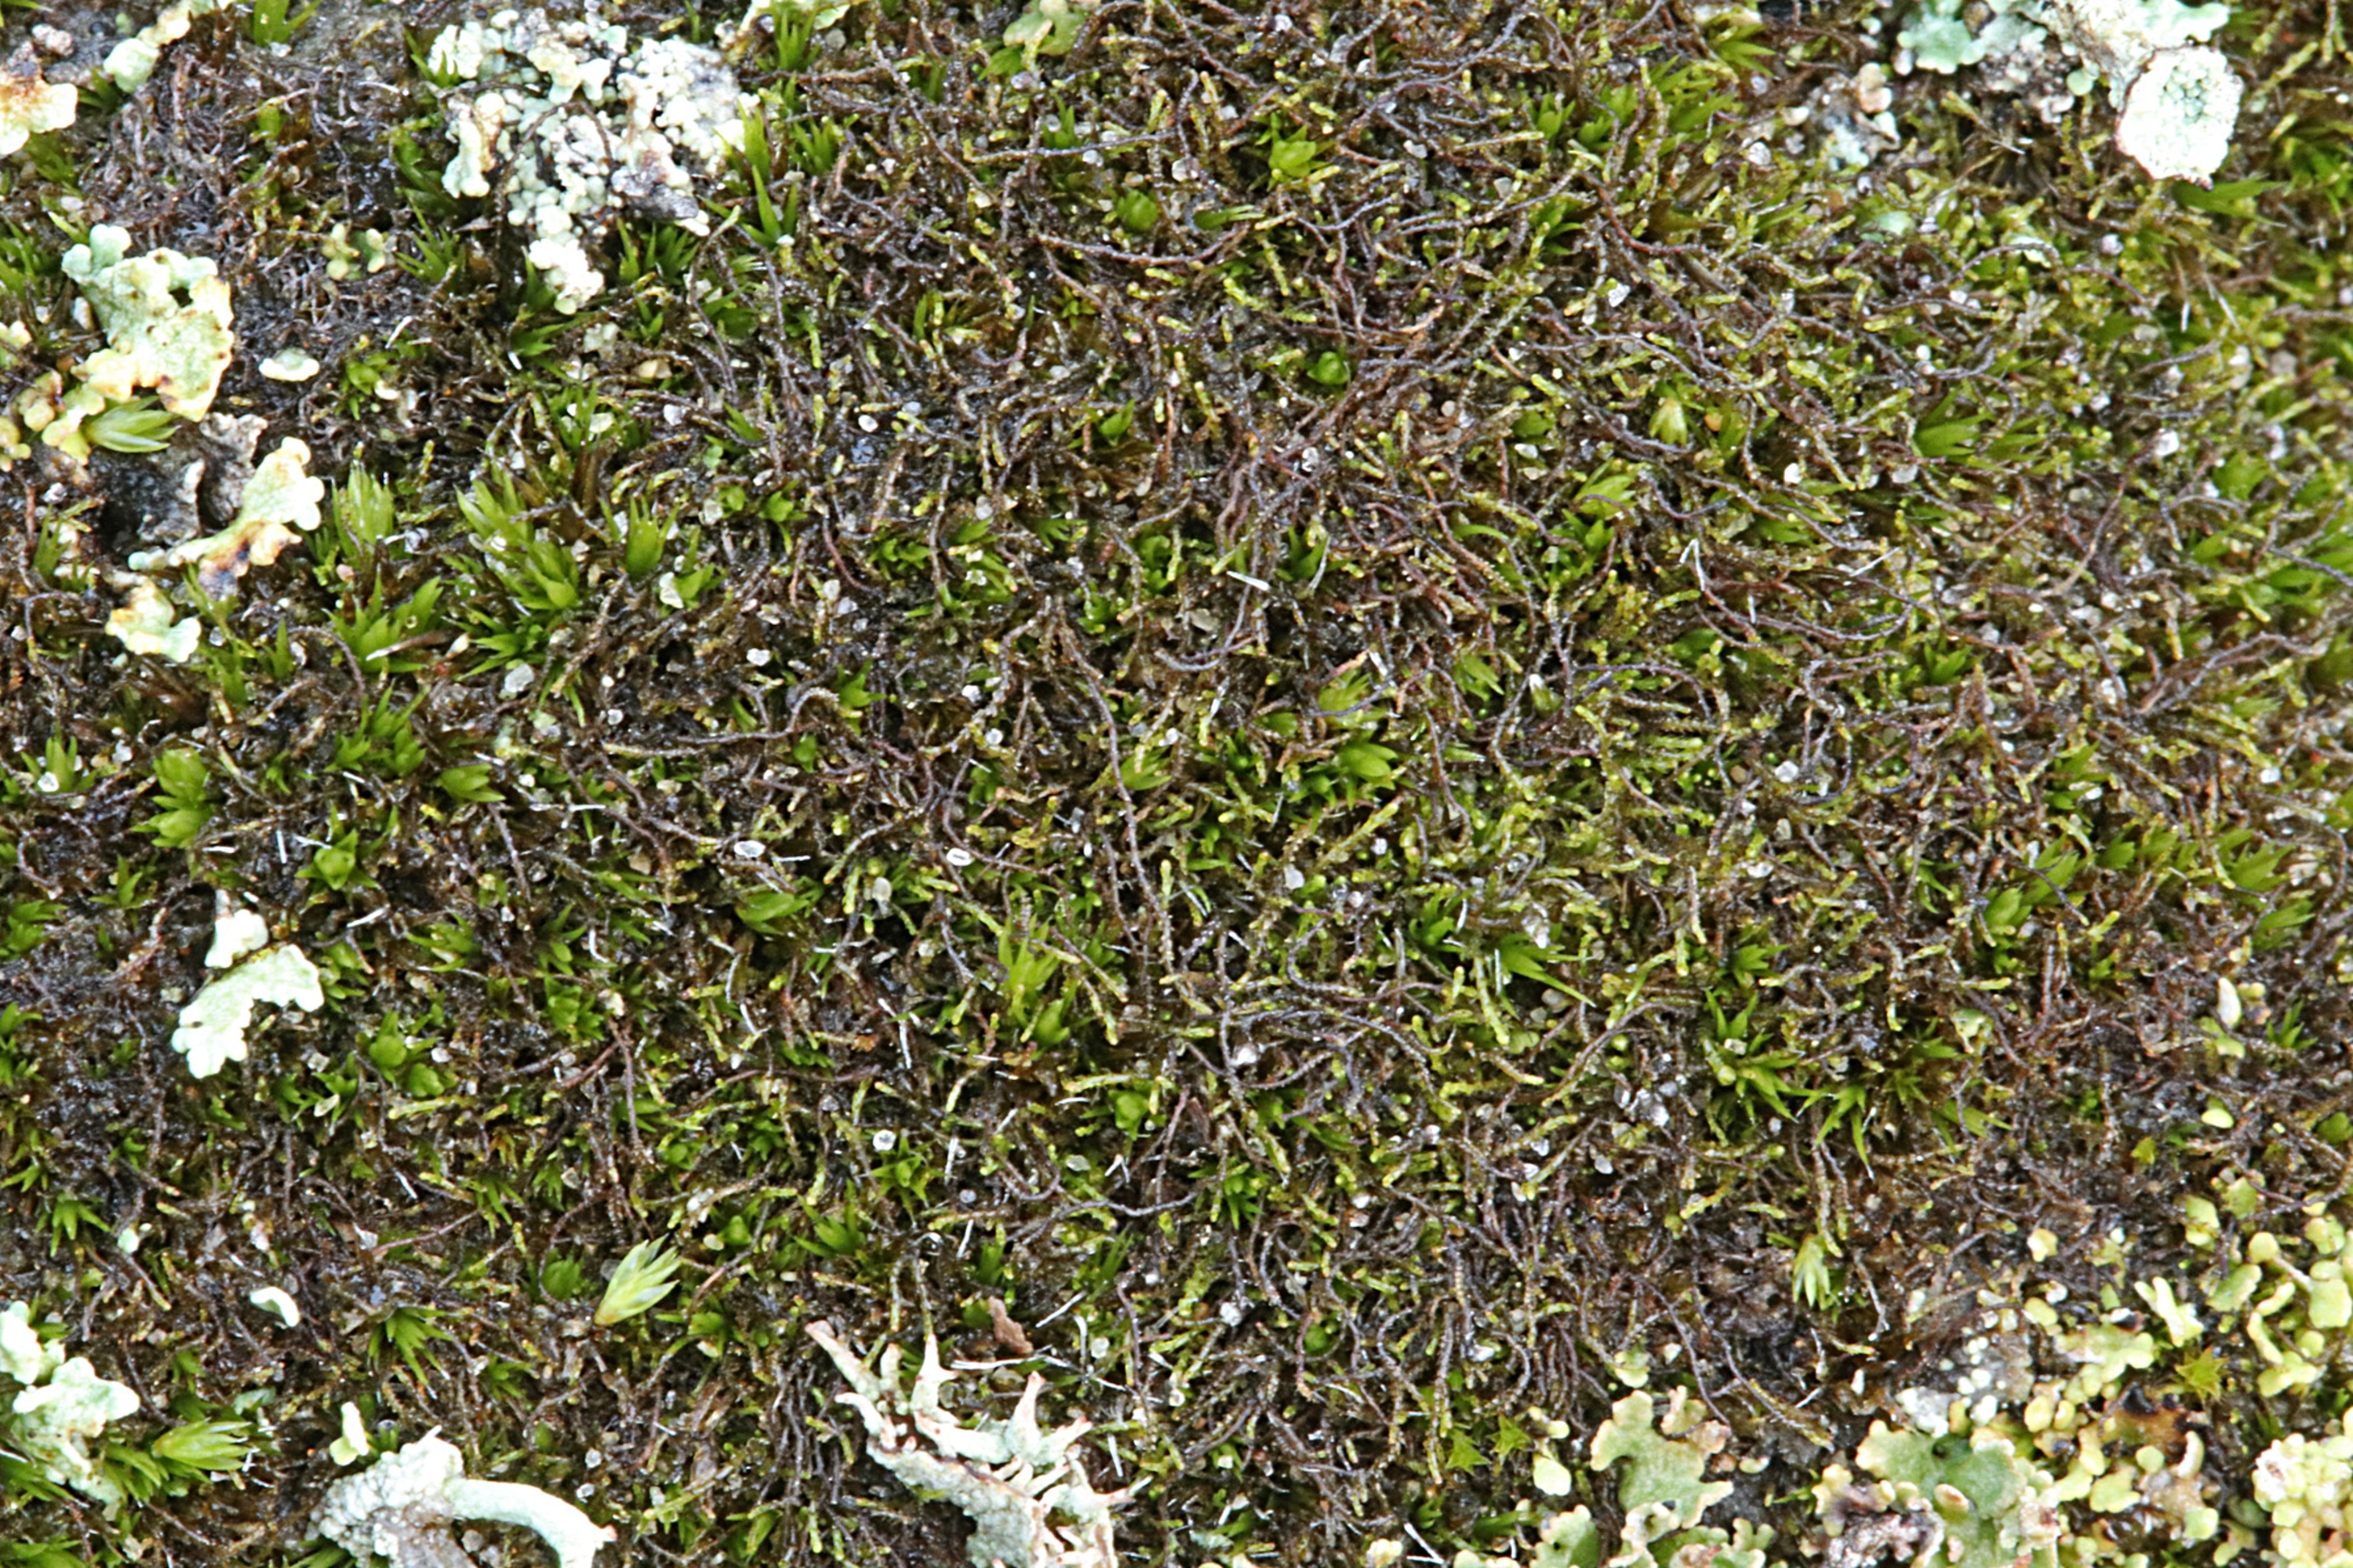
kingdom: Plantae
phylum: Marchantiophyta
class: Jungermanniopsida
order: Jungermanniales
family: Cephaloziellaceae
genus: Cephaloziella
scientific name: Cephaloziella divaricata
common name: Mørk dværgtråd
